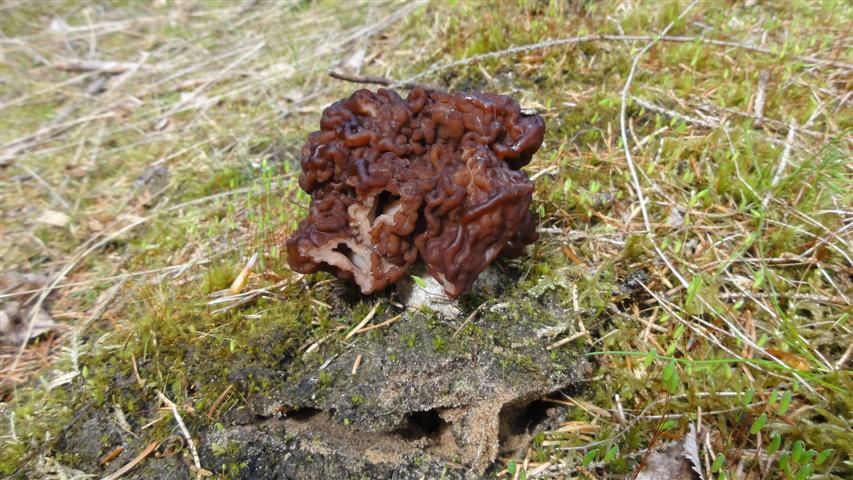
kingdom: Fungi
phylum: Ascomycota
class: Pezizomycetes
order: Pezizales
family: Discinaceae
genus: Gyromitra
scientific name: Gyromitra esculenta
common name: ægte stenmorkel
